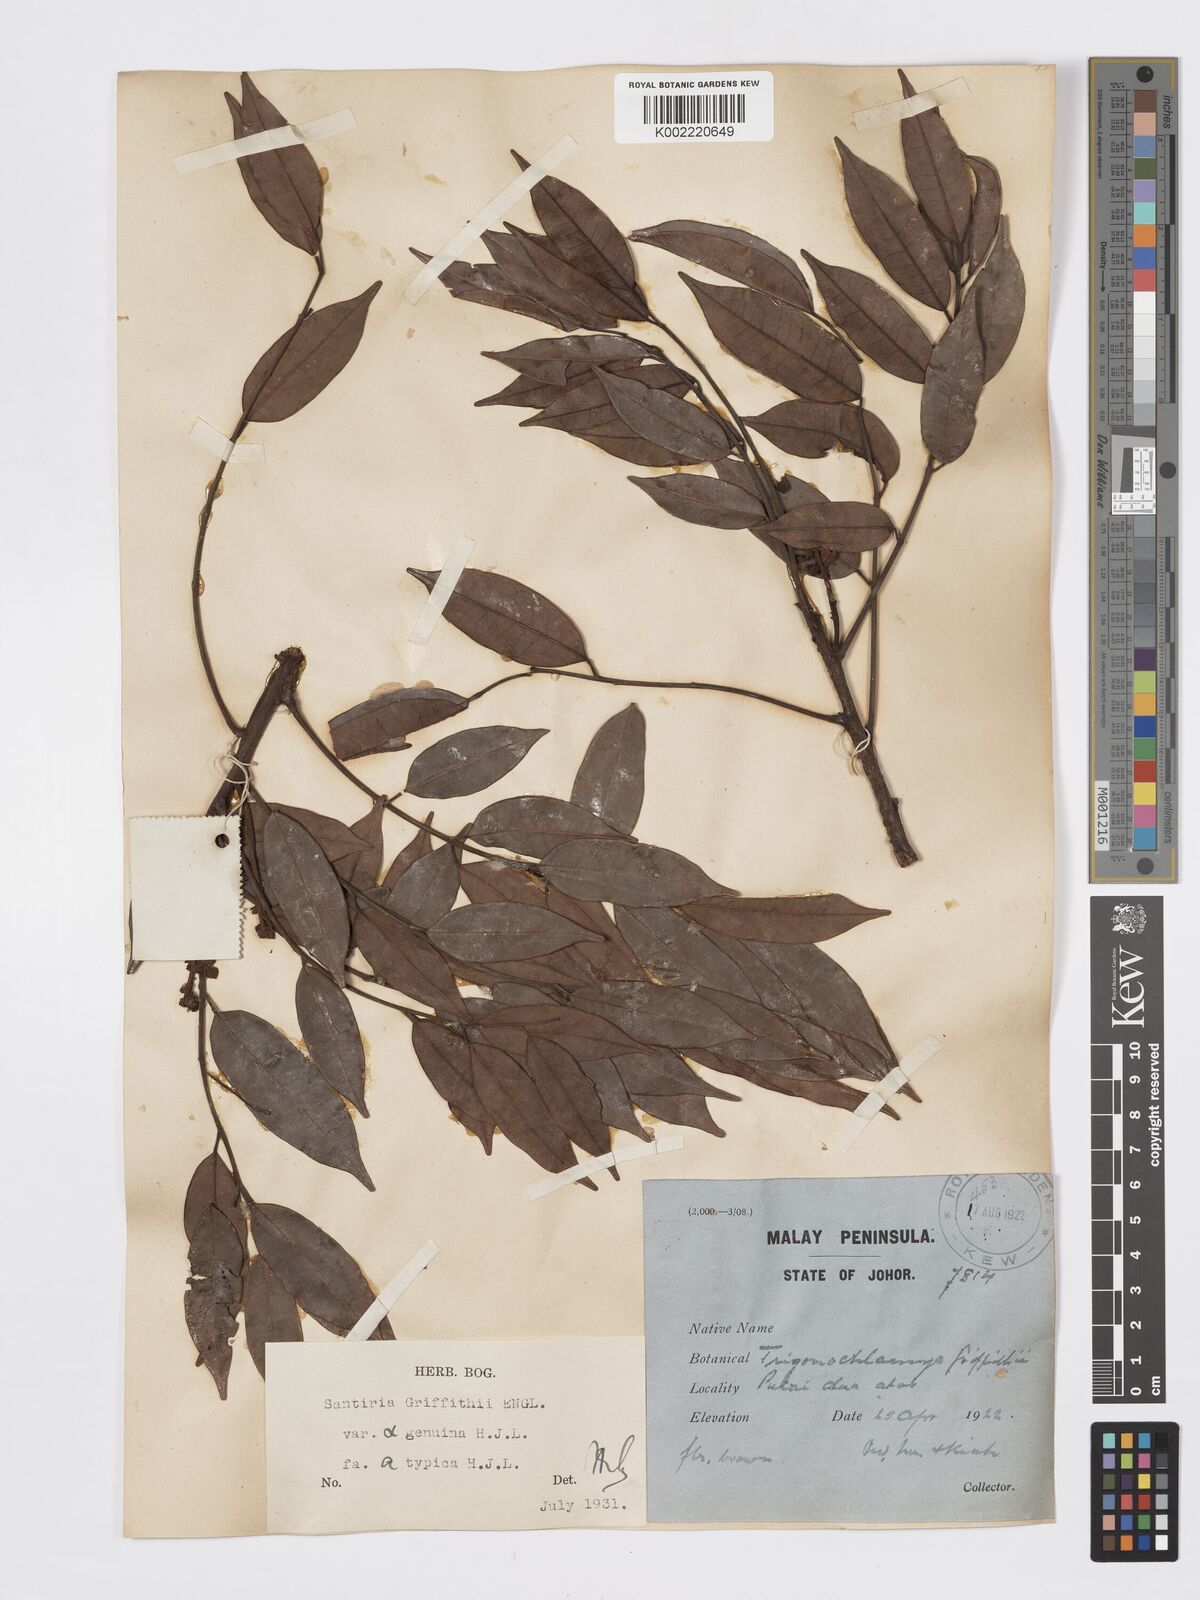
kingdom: Plantae
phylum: Tracheophyta
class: Magnoliopsida
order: Sapindales
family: Burseraceae
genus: Santiria
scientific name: Santiria griffithii
